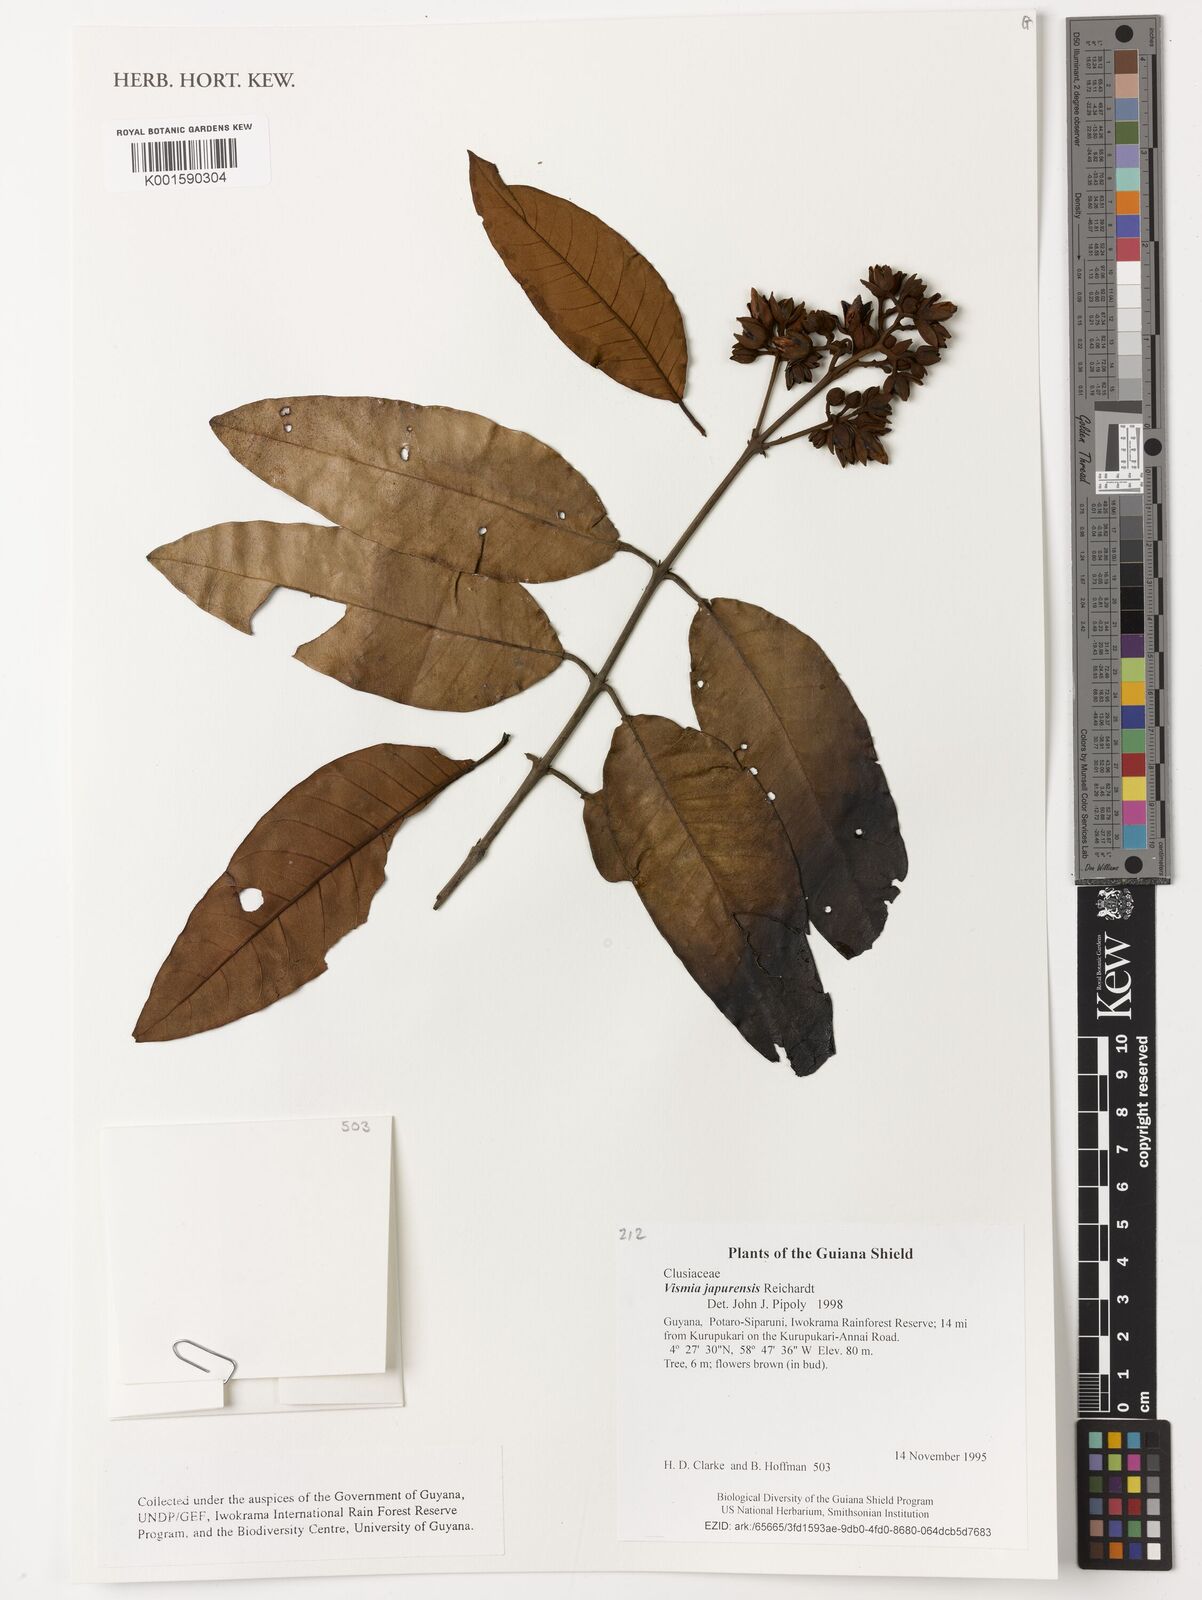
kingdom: Plantae
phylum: Tracheophyta
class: Magnoliopsida
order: Malpighiales
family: Hypericaceae
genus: Vismia
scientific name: Vismia japurensis
